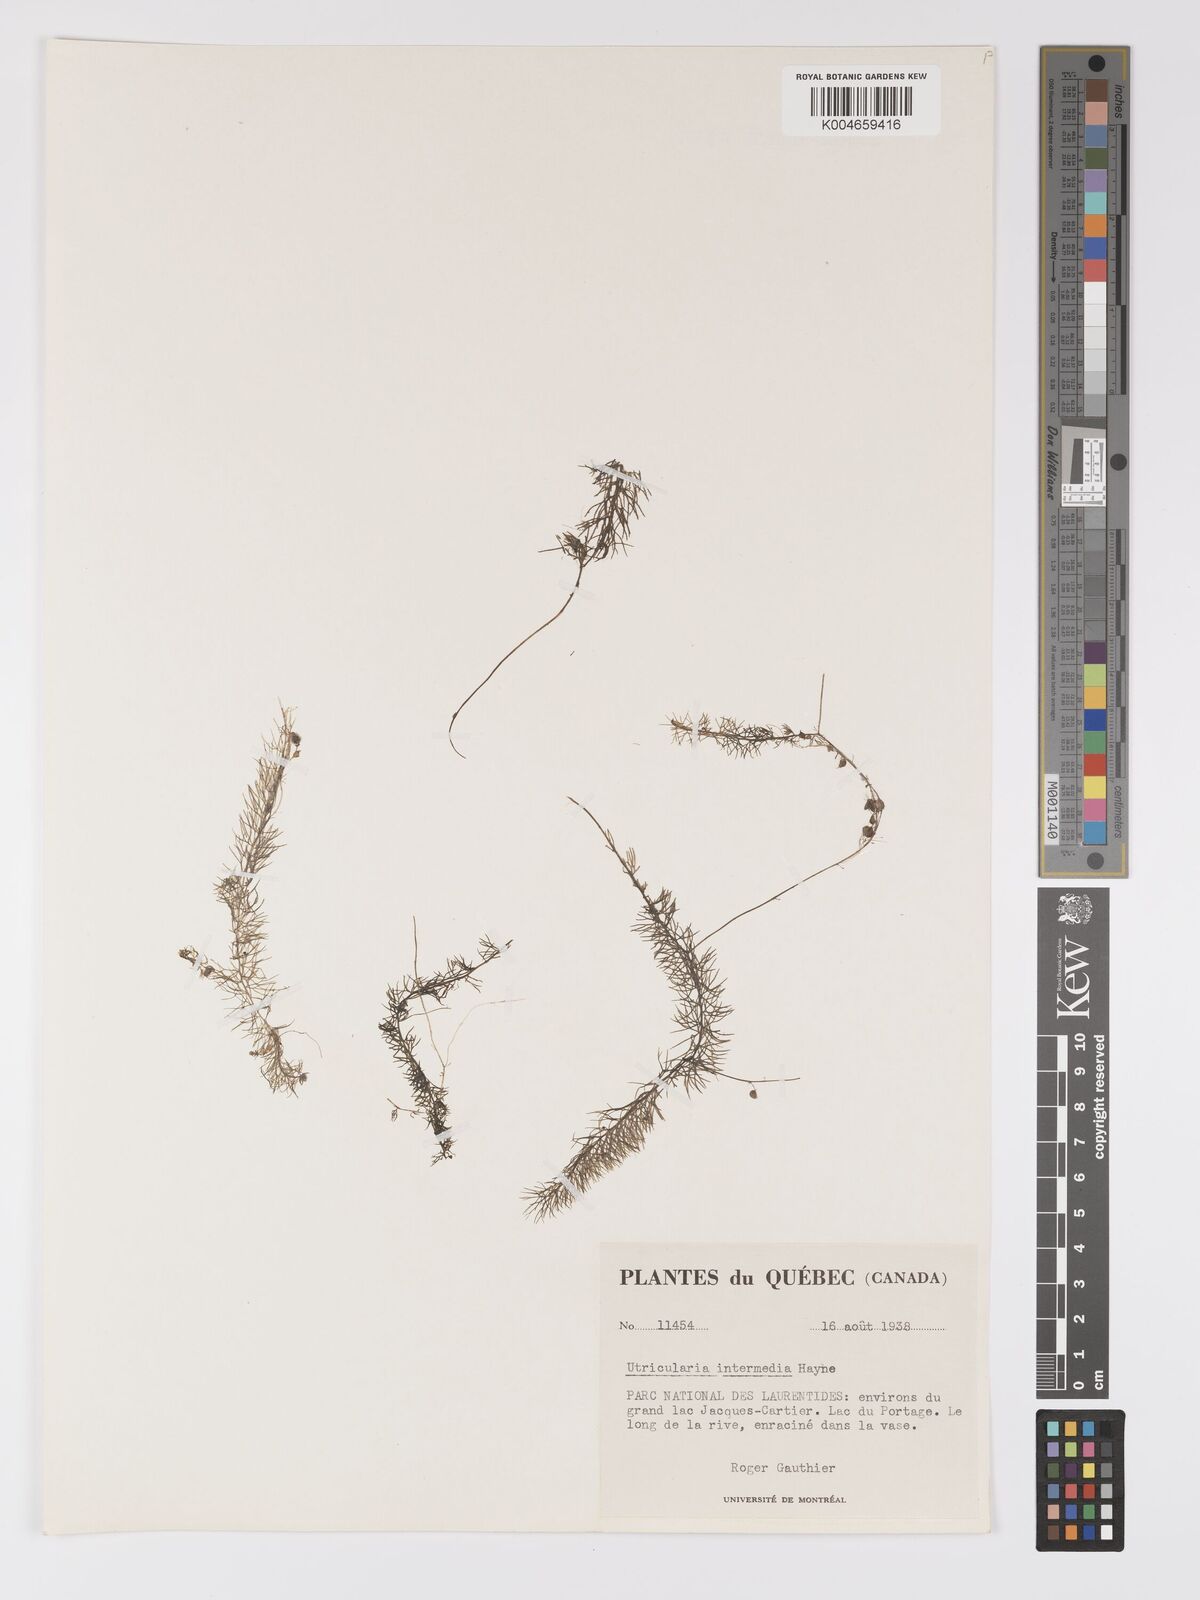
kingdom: Plantae
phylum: Tracheophyta
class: Magnoliopsida
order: Lamiales
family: Lentibulariaceae
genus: Utricularia
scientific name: Utricularia intermedia
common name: Intermediate bladderwort
